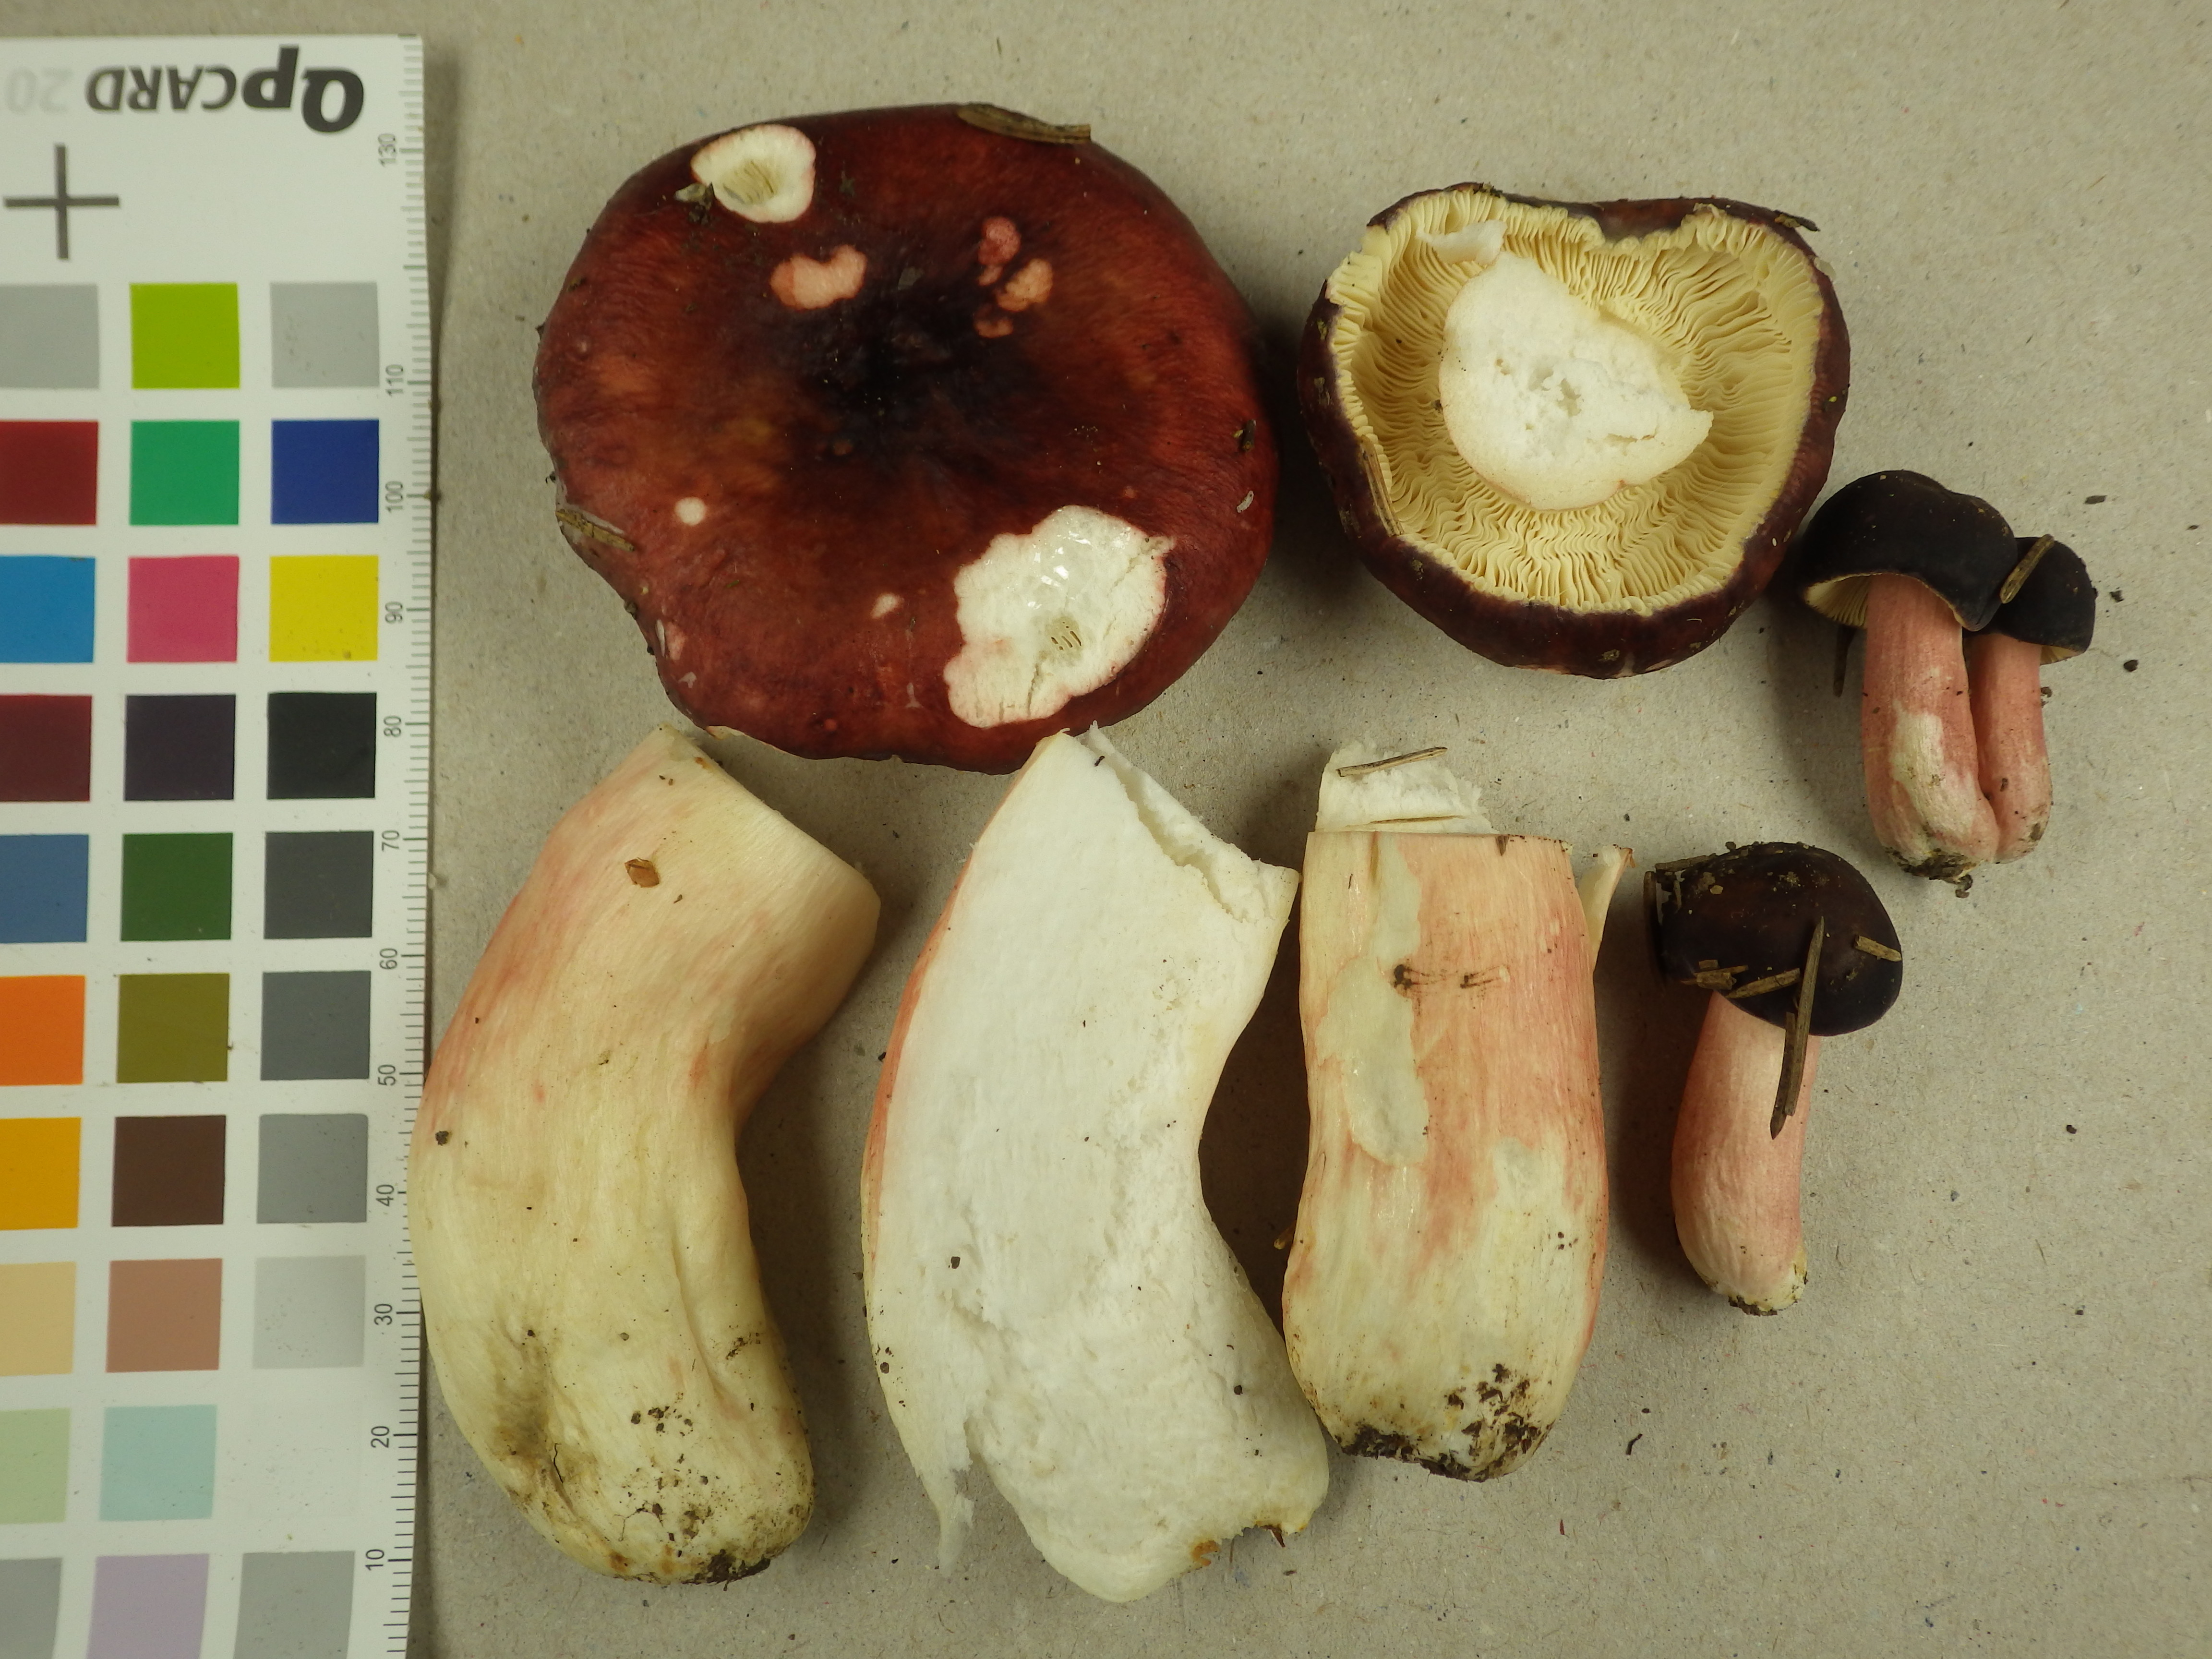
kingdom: Fungi
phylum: Basidiomycota
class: Agaricomycetes
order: Russulales
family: Russulaceae
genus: Russula
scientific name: Russula crassipes
